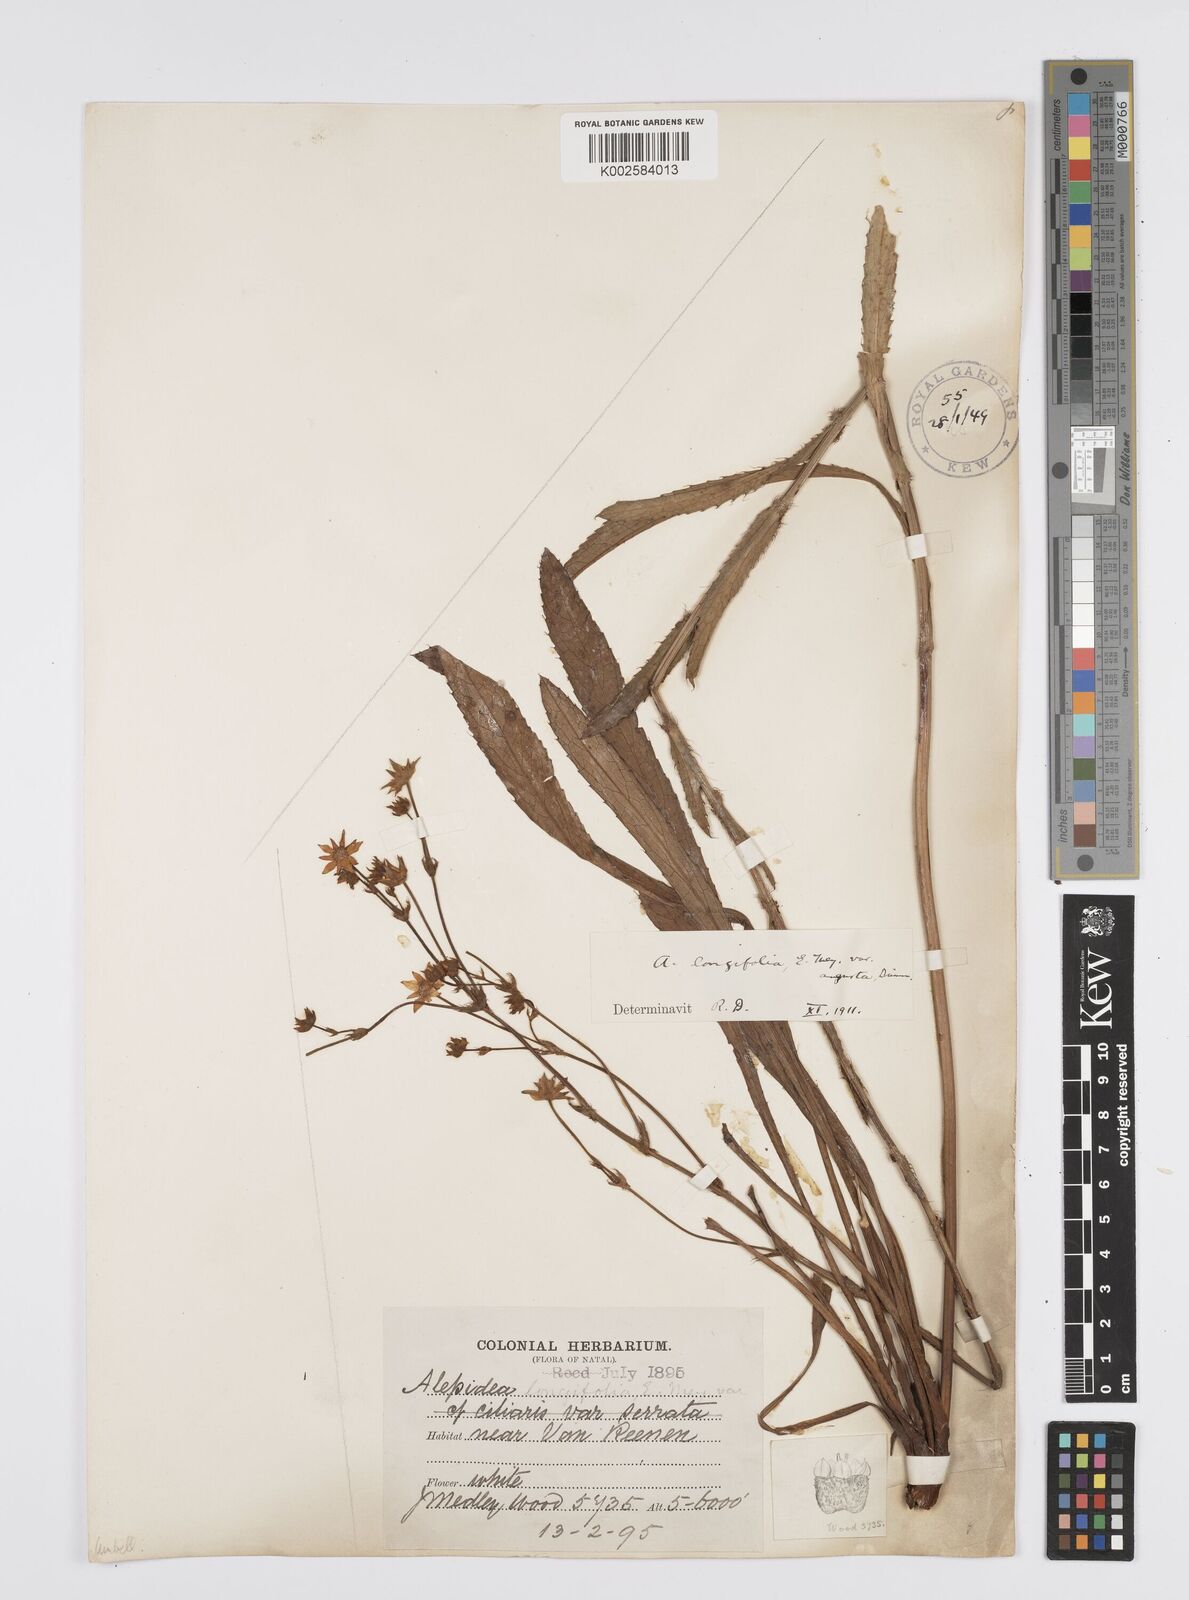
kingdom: Plantae
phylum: Tracheophyta
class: Magnoliopsida
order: Apiales
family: Apiaceae
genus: Alepidea
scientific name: Alepidea
